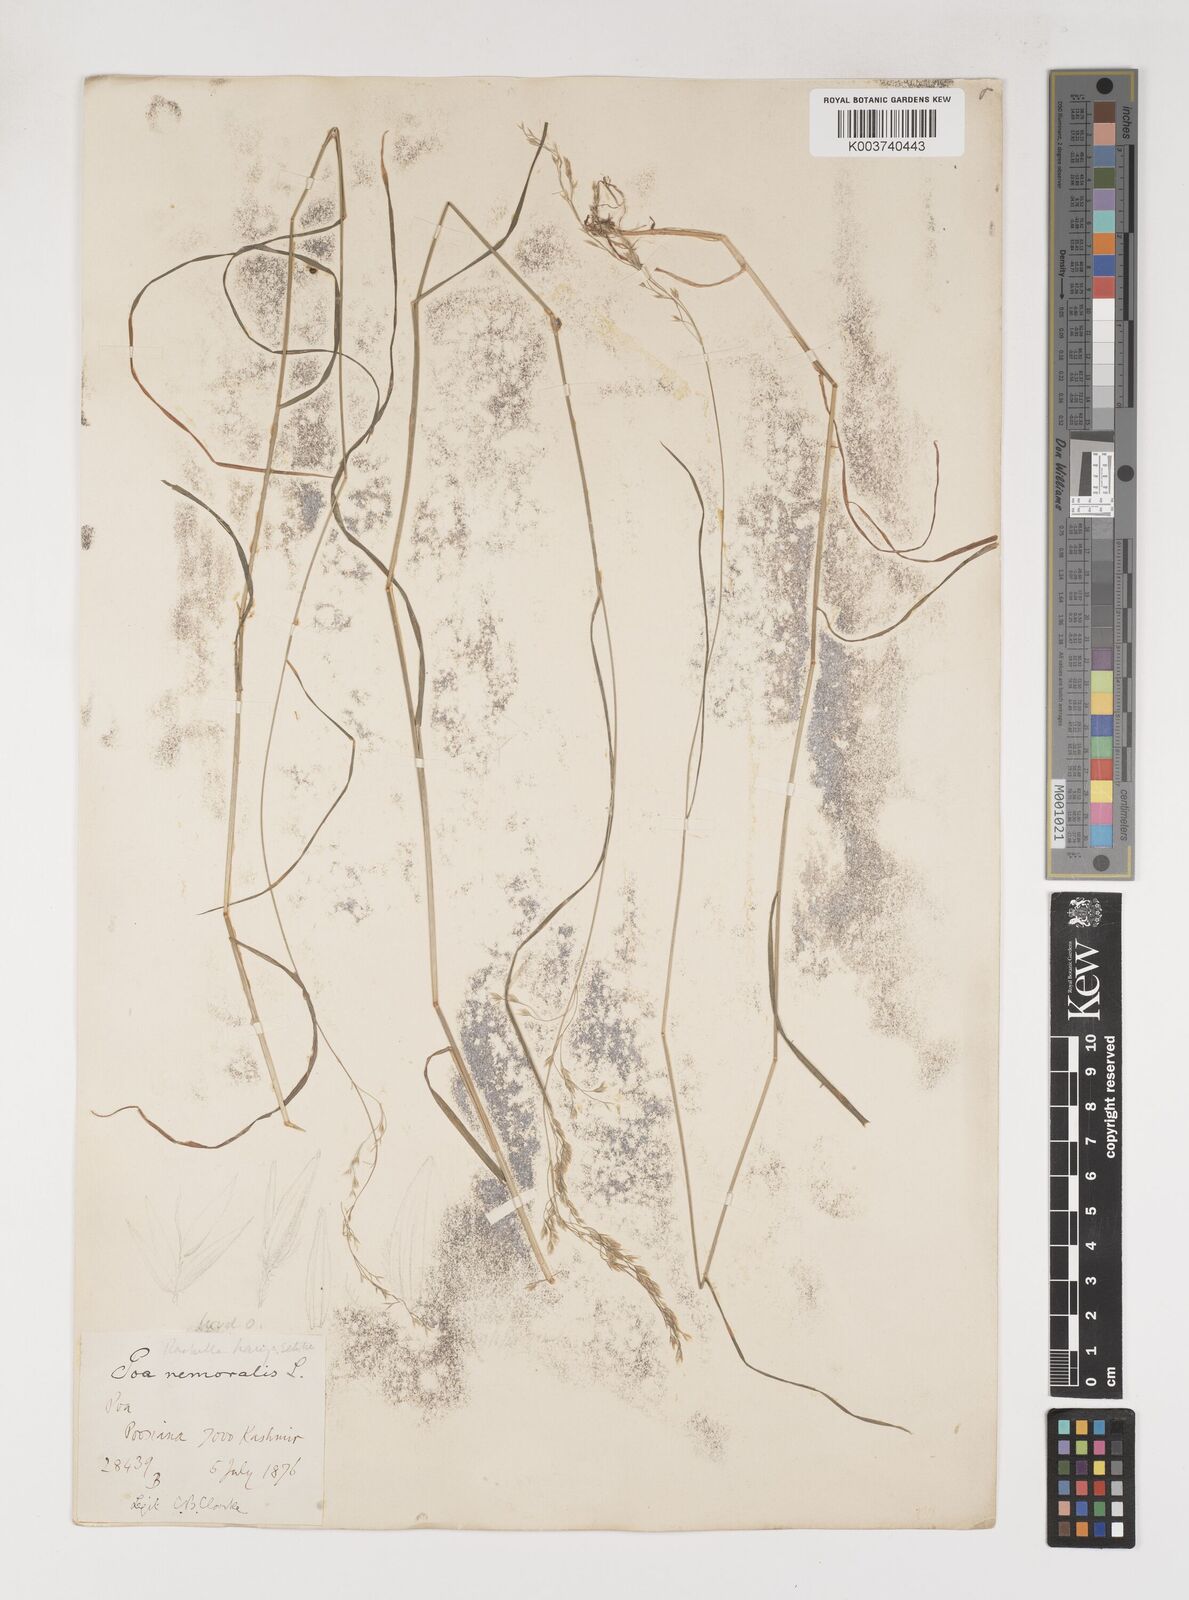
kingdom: Plantae
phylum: Tracheophyta
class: Liliopsida
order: Poales
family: Poaceae
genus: Poa
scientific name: Poa nemoralis
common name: Wood bluegrass
